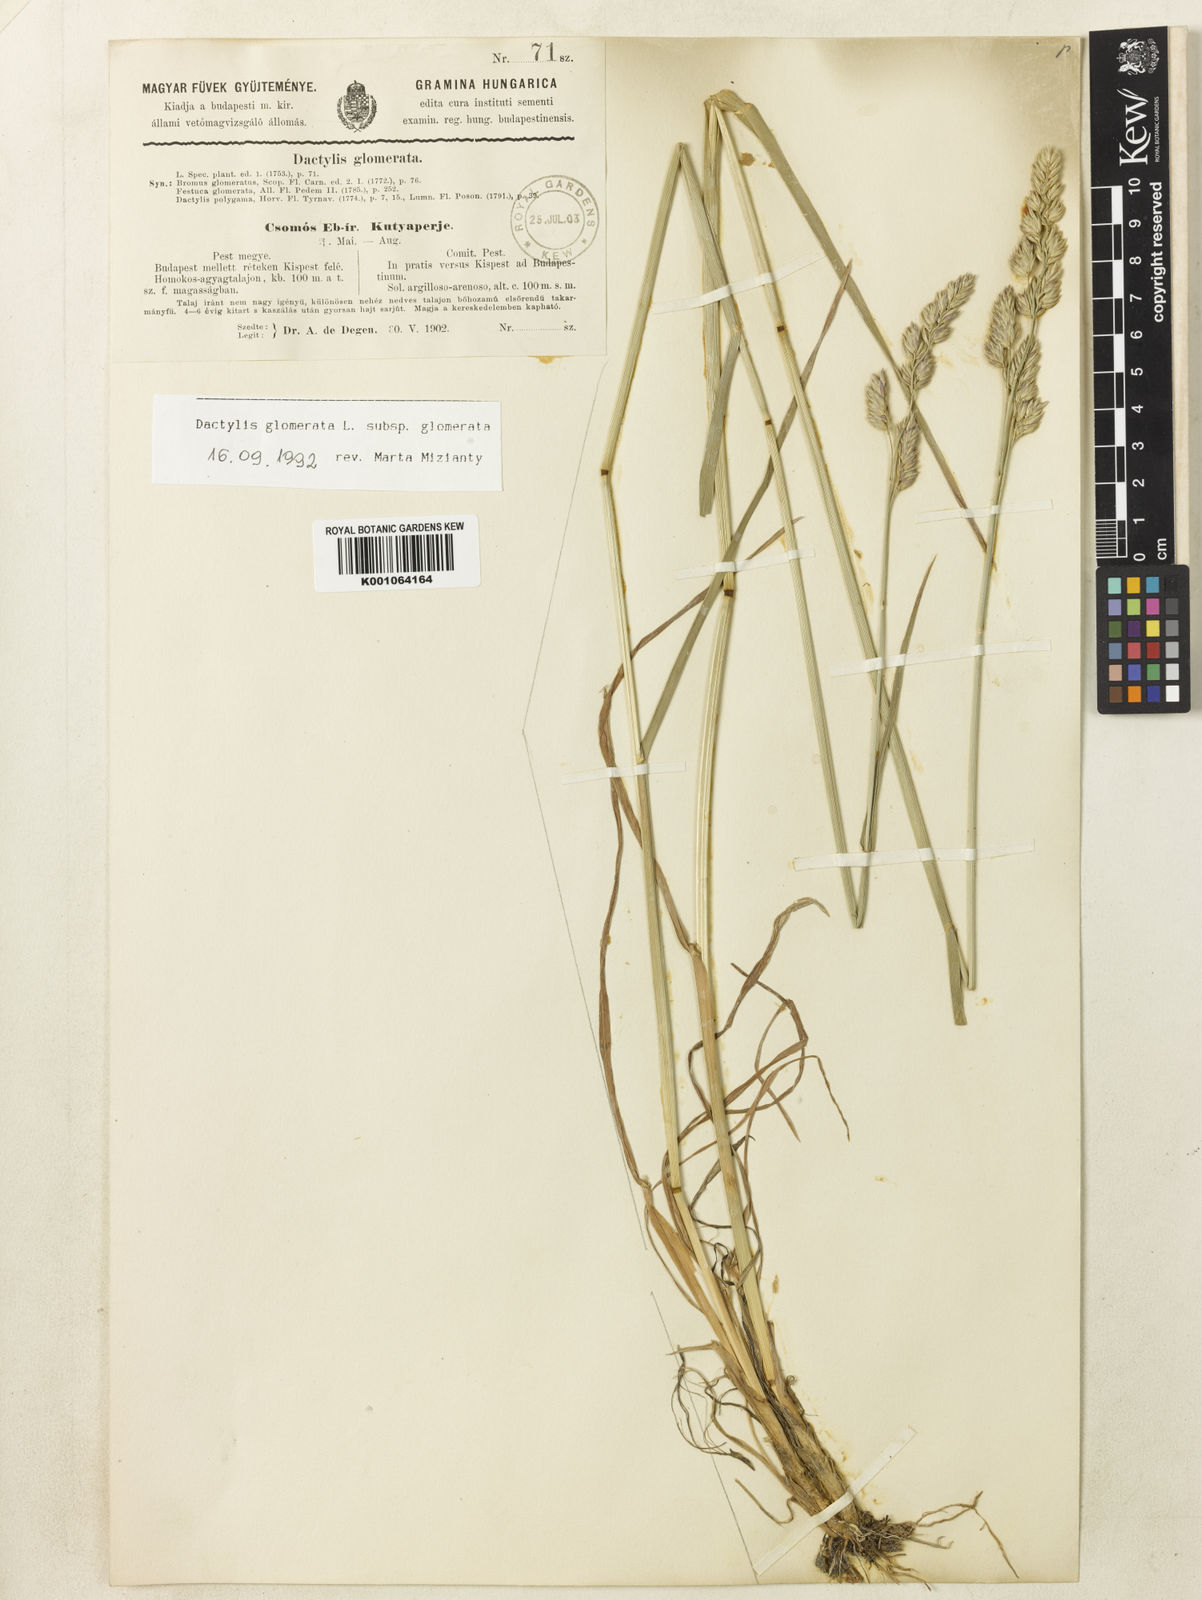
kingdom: Plantae
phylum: Tracheophyta
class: Liliopsida
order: Poales
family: Poaceae
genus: Dactylis
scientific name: Dactylis glomerata
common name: Orchardgrass
